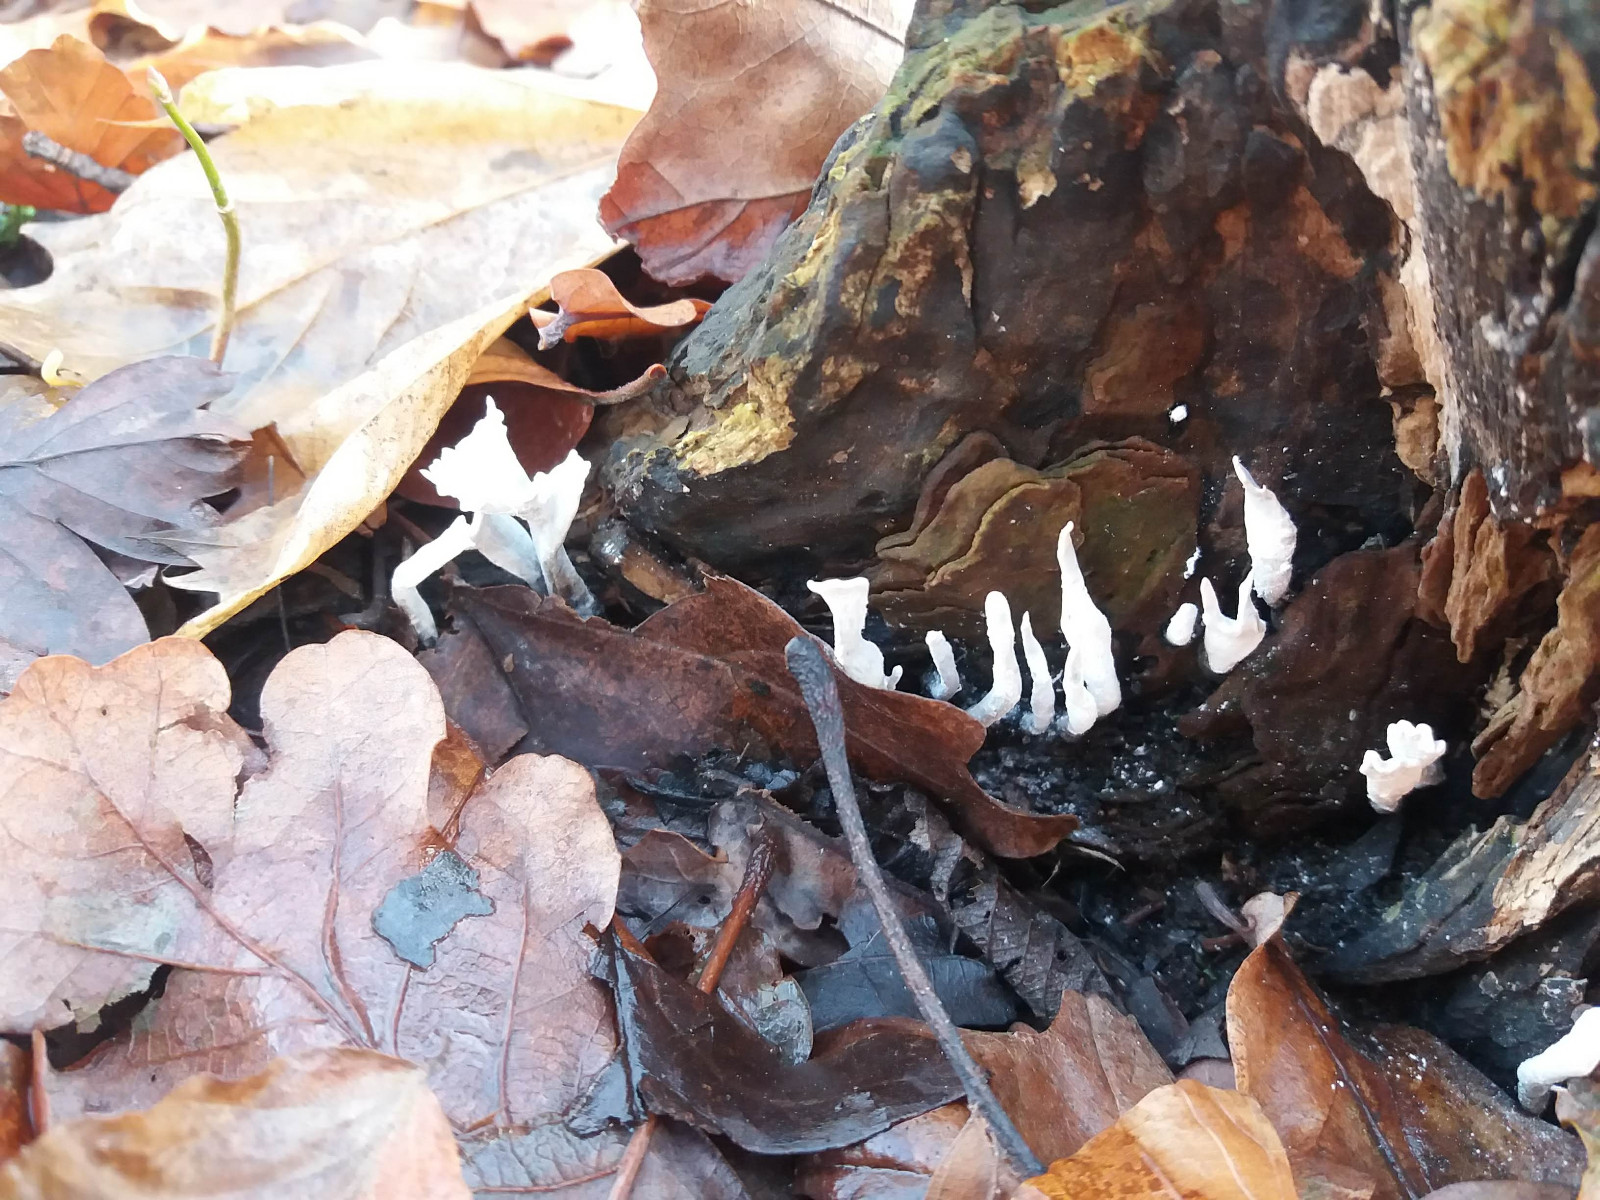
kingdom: Fungi
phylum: Ascomycota
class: Sordariomycetes
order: Xylariales
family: Xylariaceae
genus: Xylaria
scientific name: Xylaria hypoxylon
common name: grenet stødsvamp
